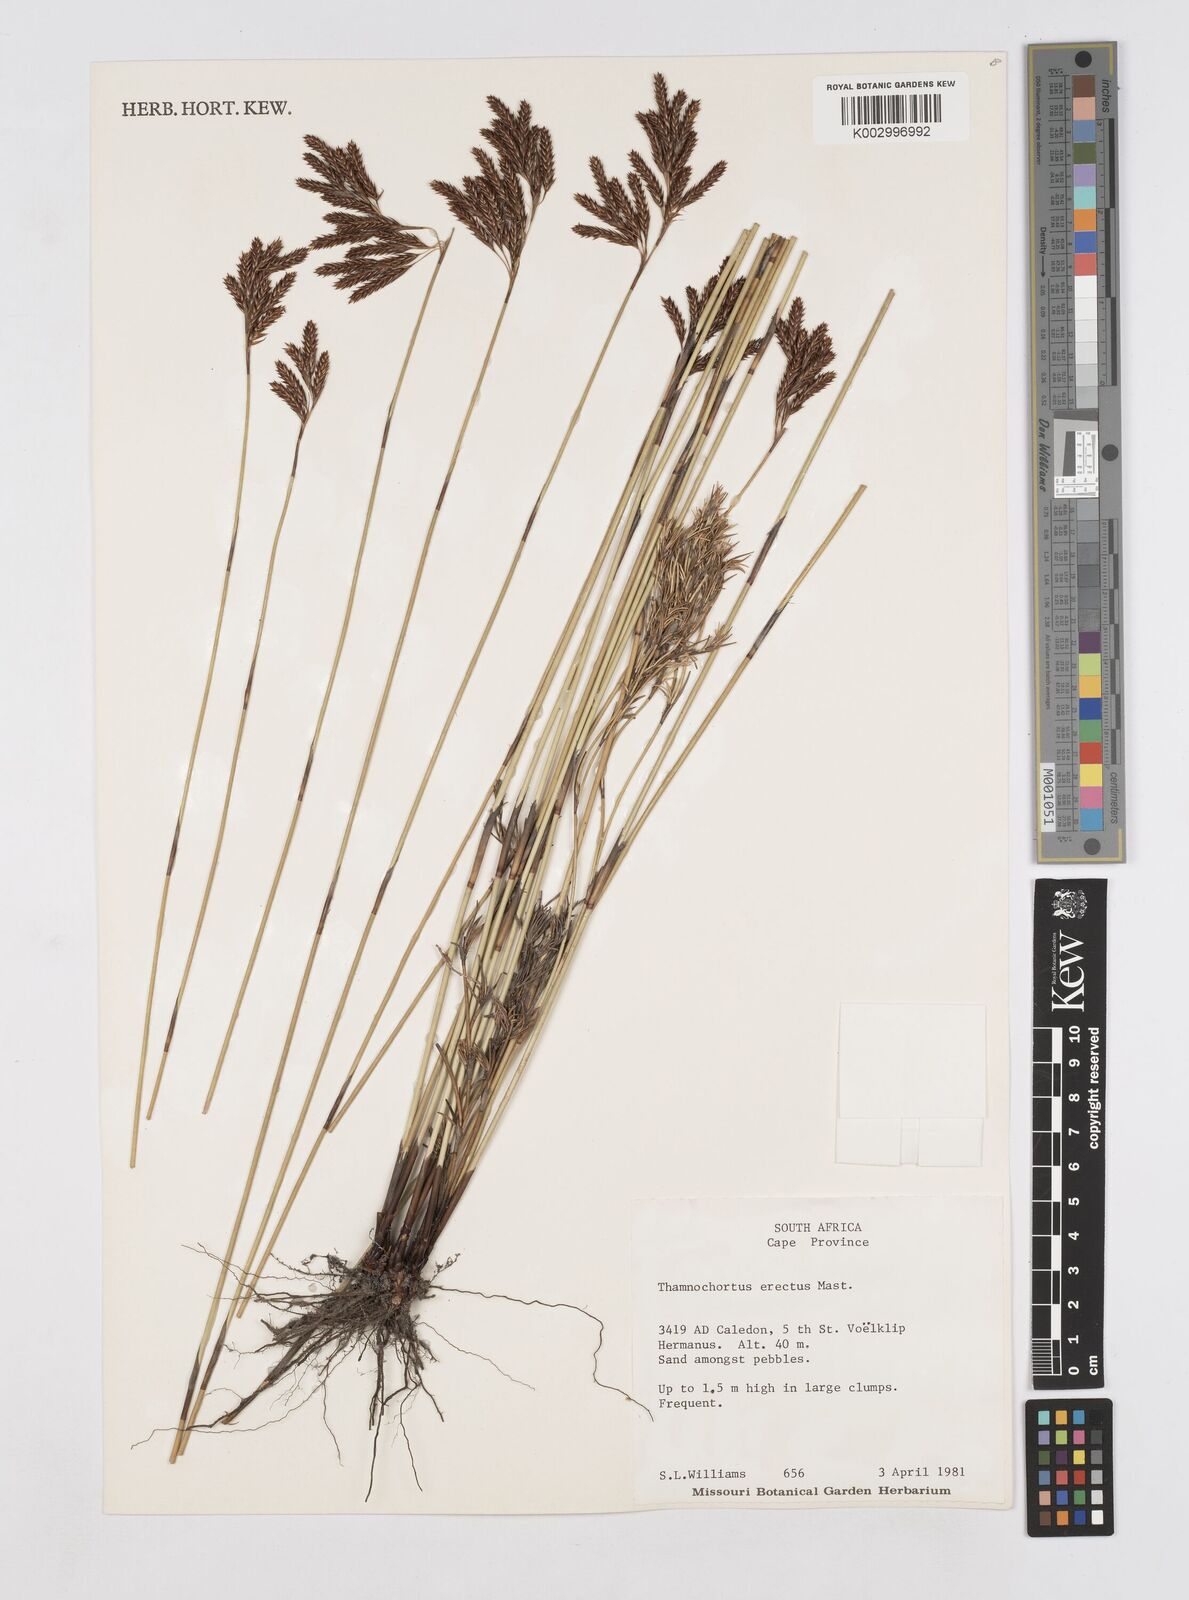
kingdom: Plantae
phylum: Tracheophyta
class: Liliopsida
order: Poales
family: Restionaceae
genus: Thamnochortus
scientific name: Thamnochortus erectus
